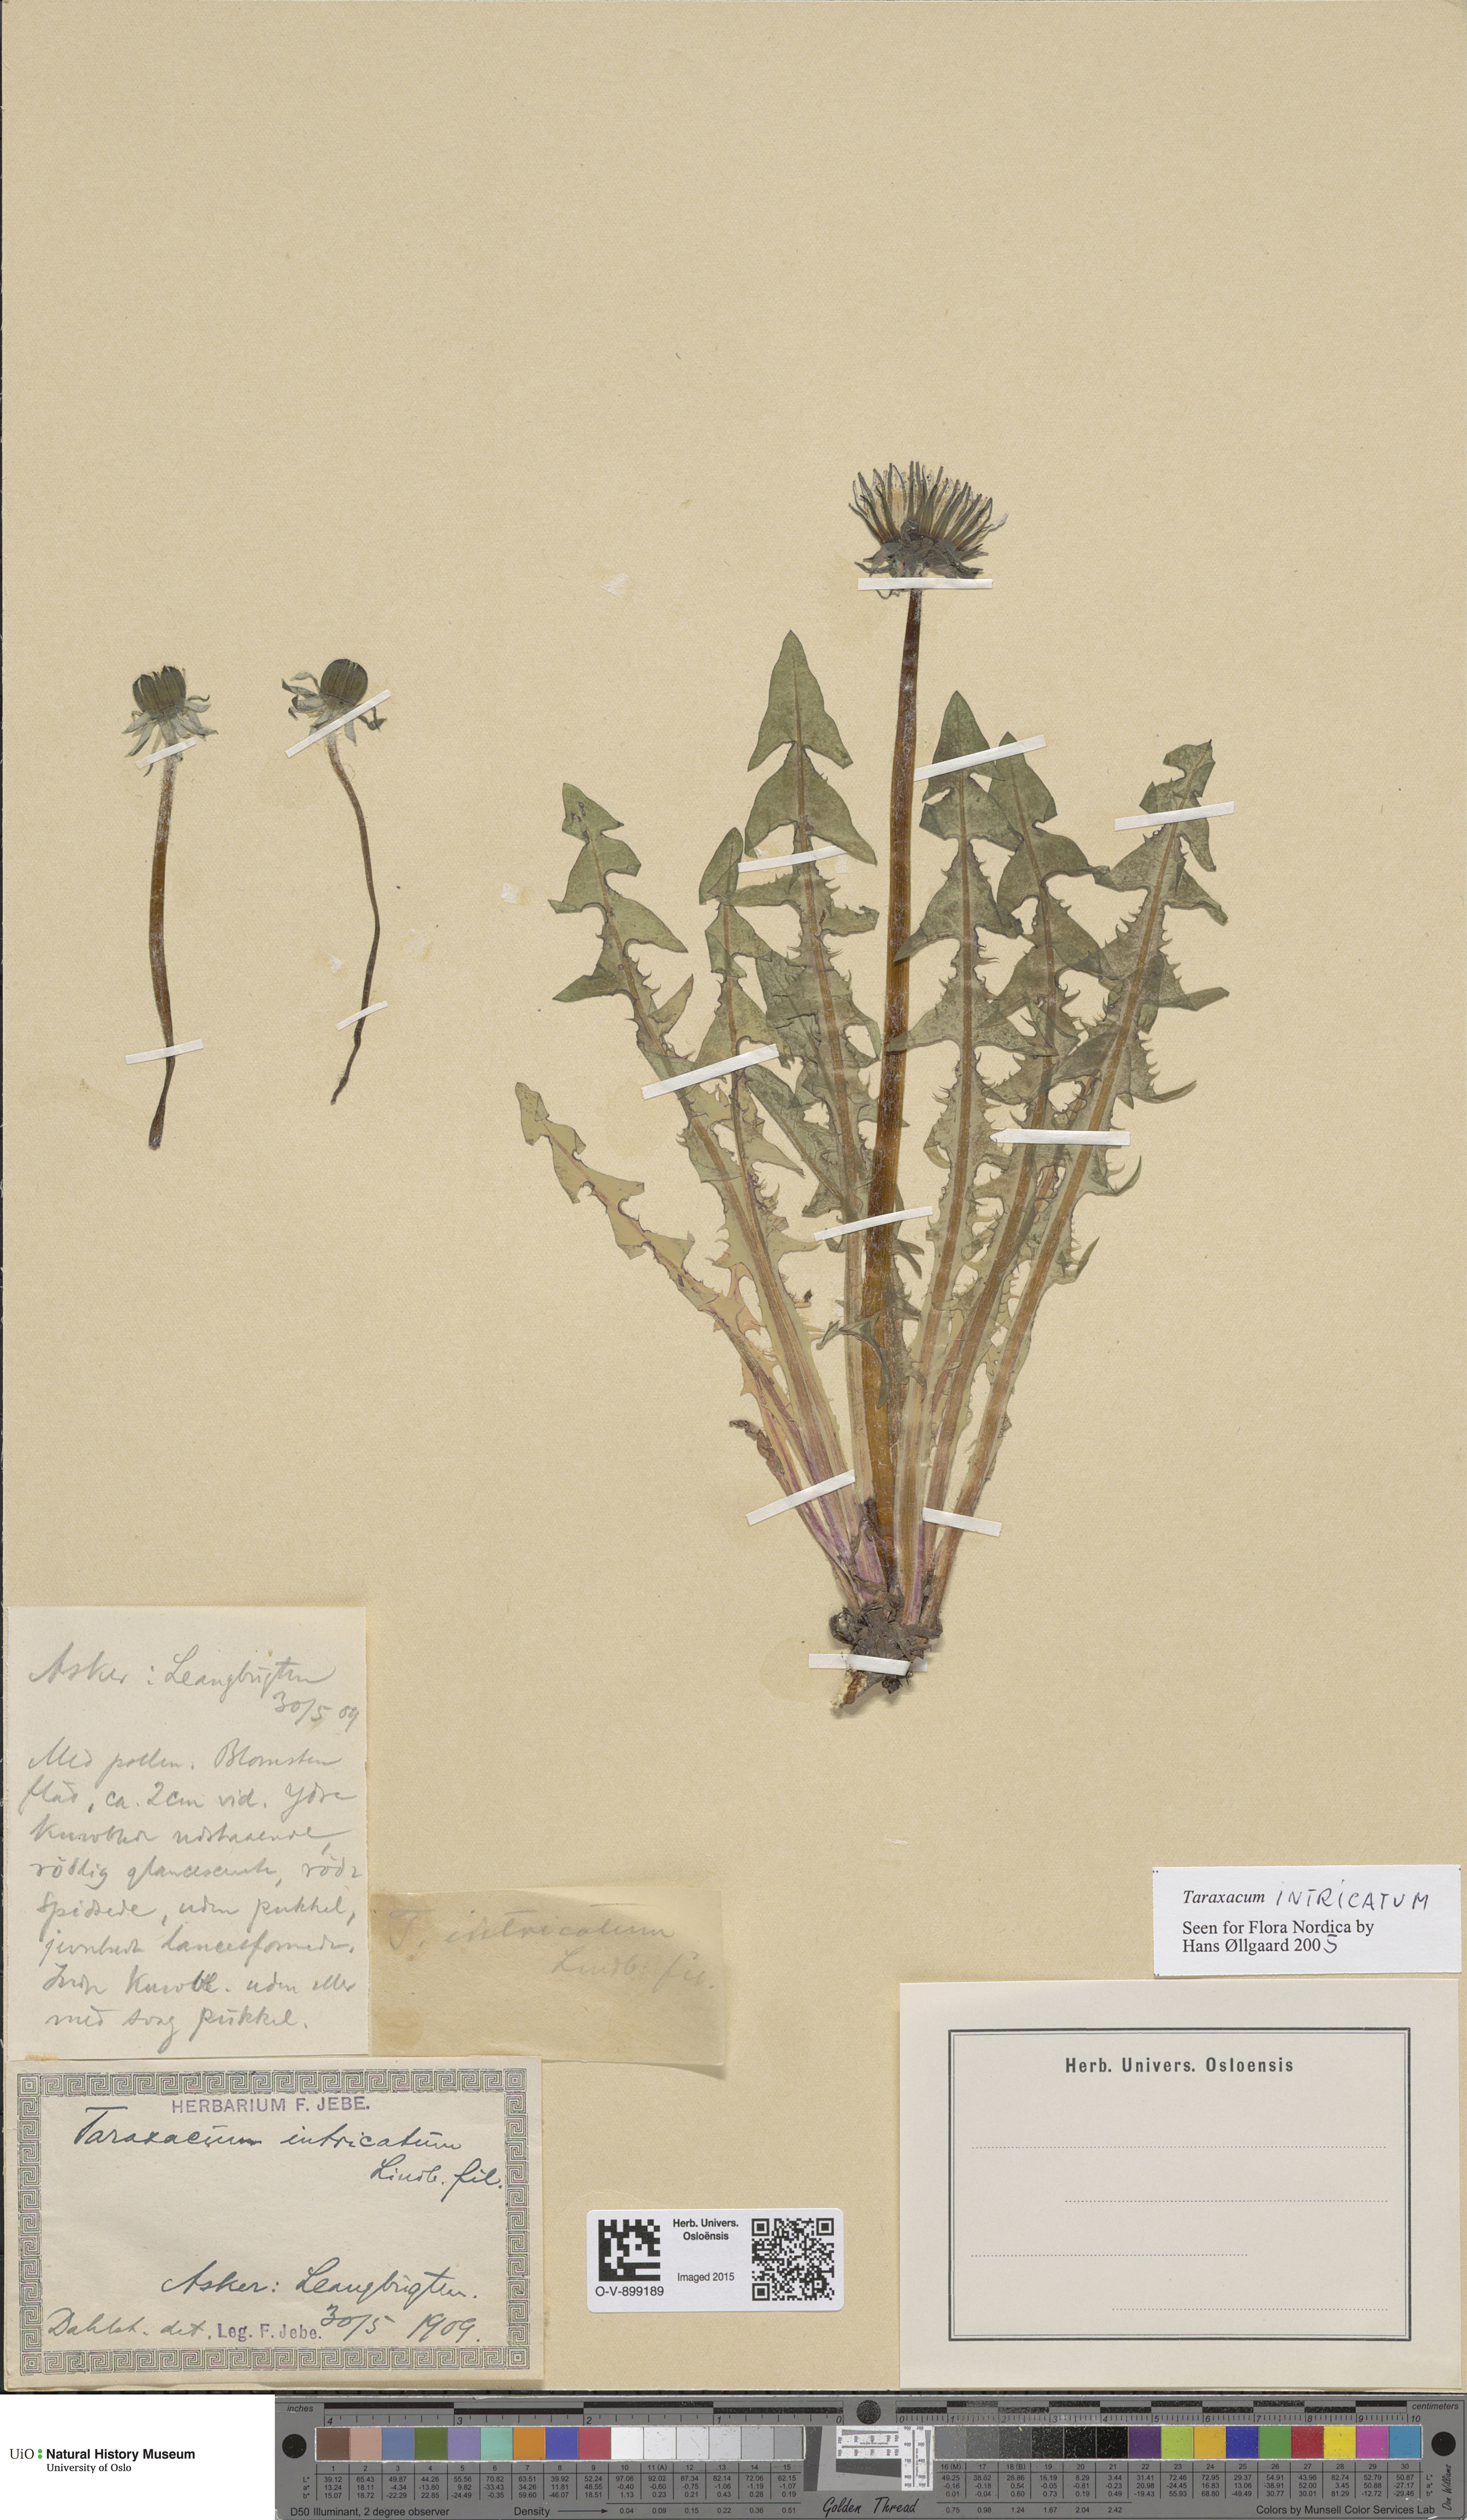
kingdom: Plantae
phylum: Tracheophyta
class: Magnoliopsida
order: Asterales
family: Asteraceae
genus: Taraxacum
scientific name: Taraxacum recurvum
